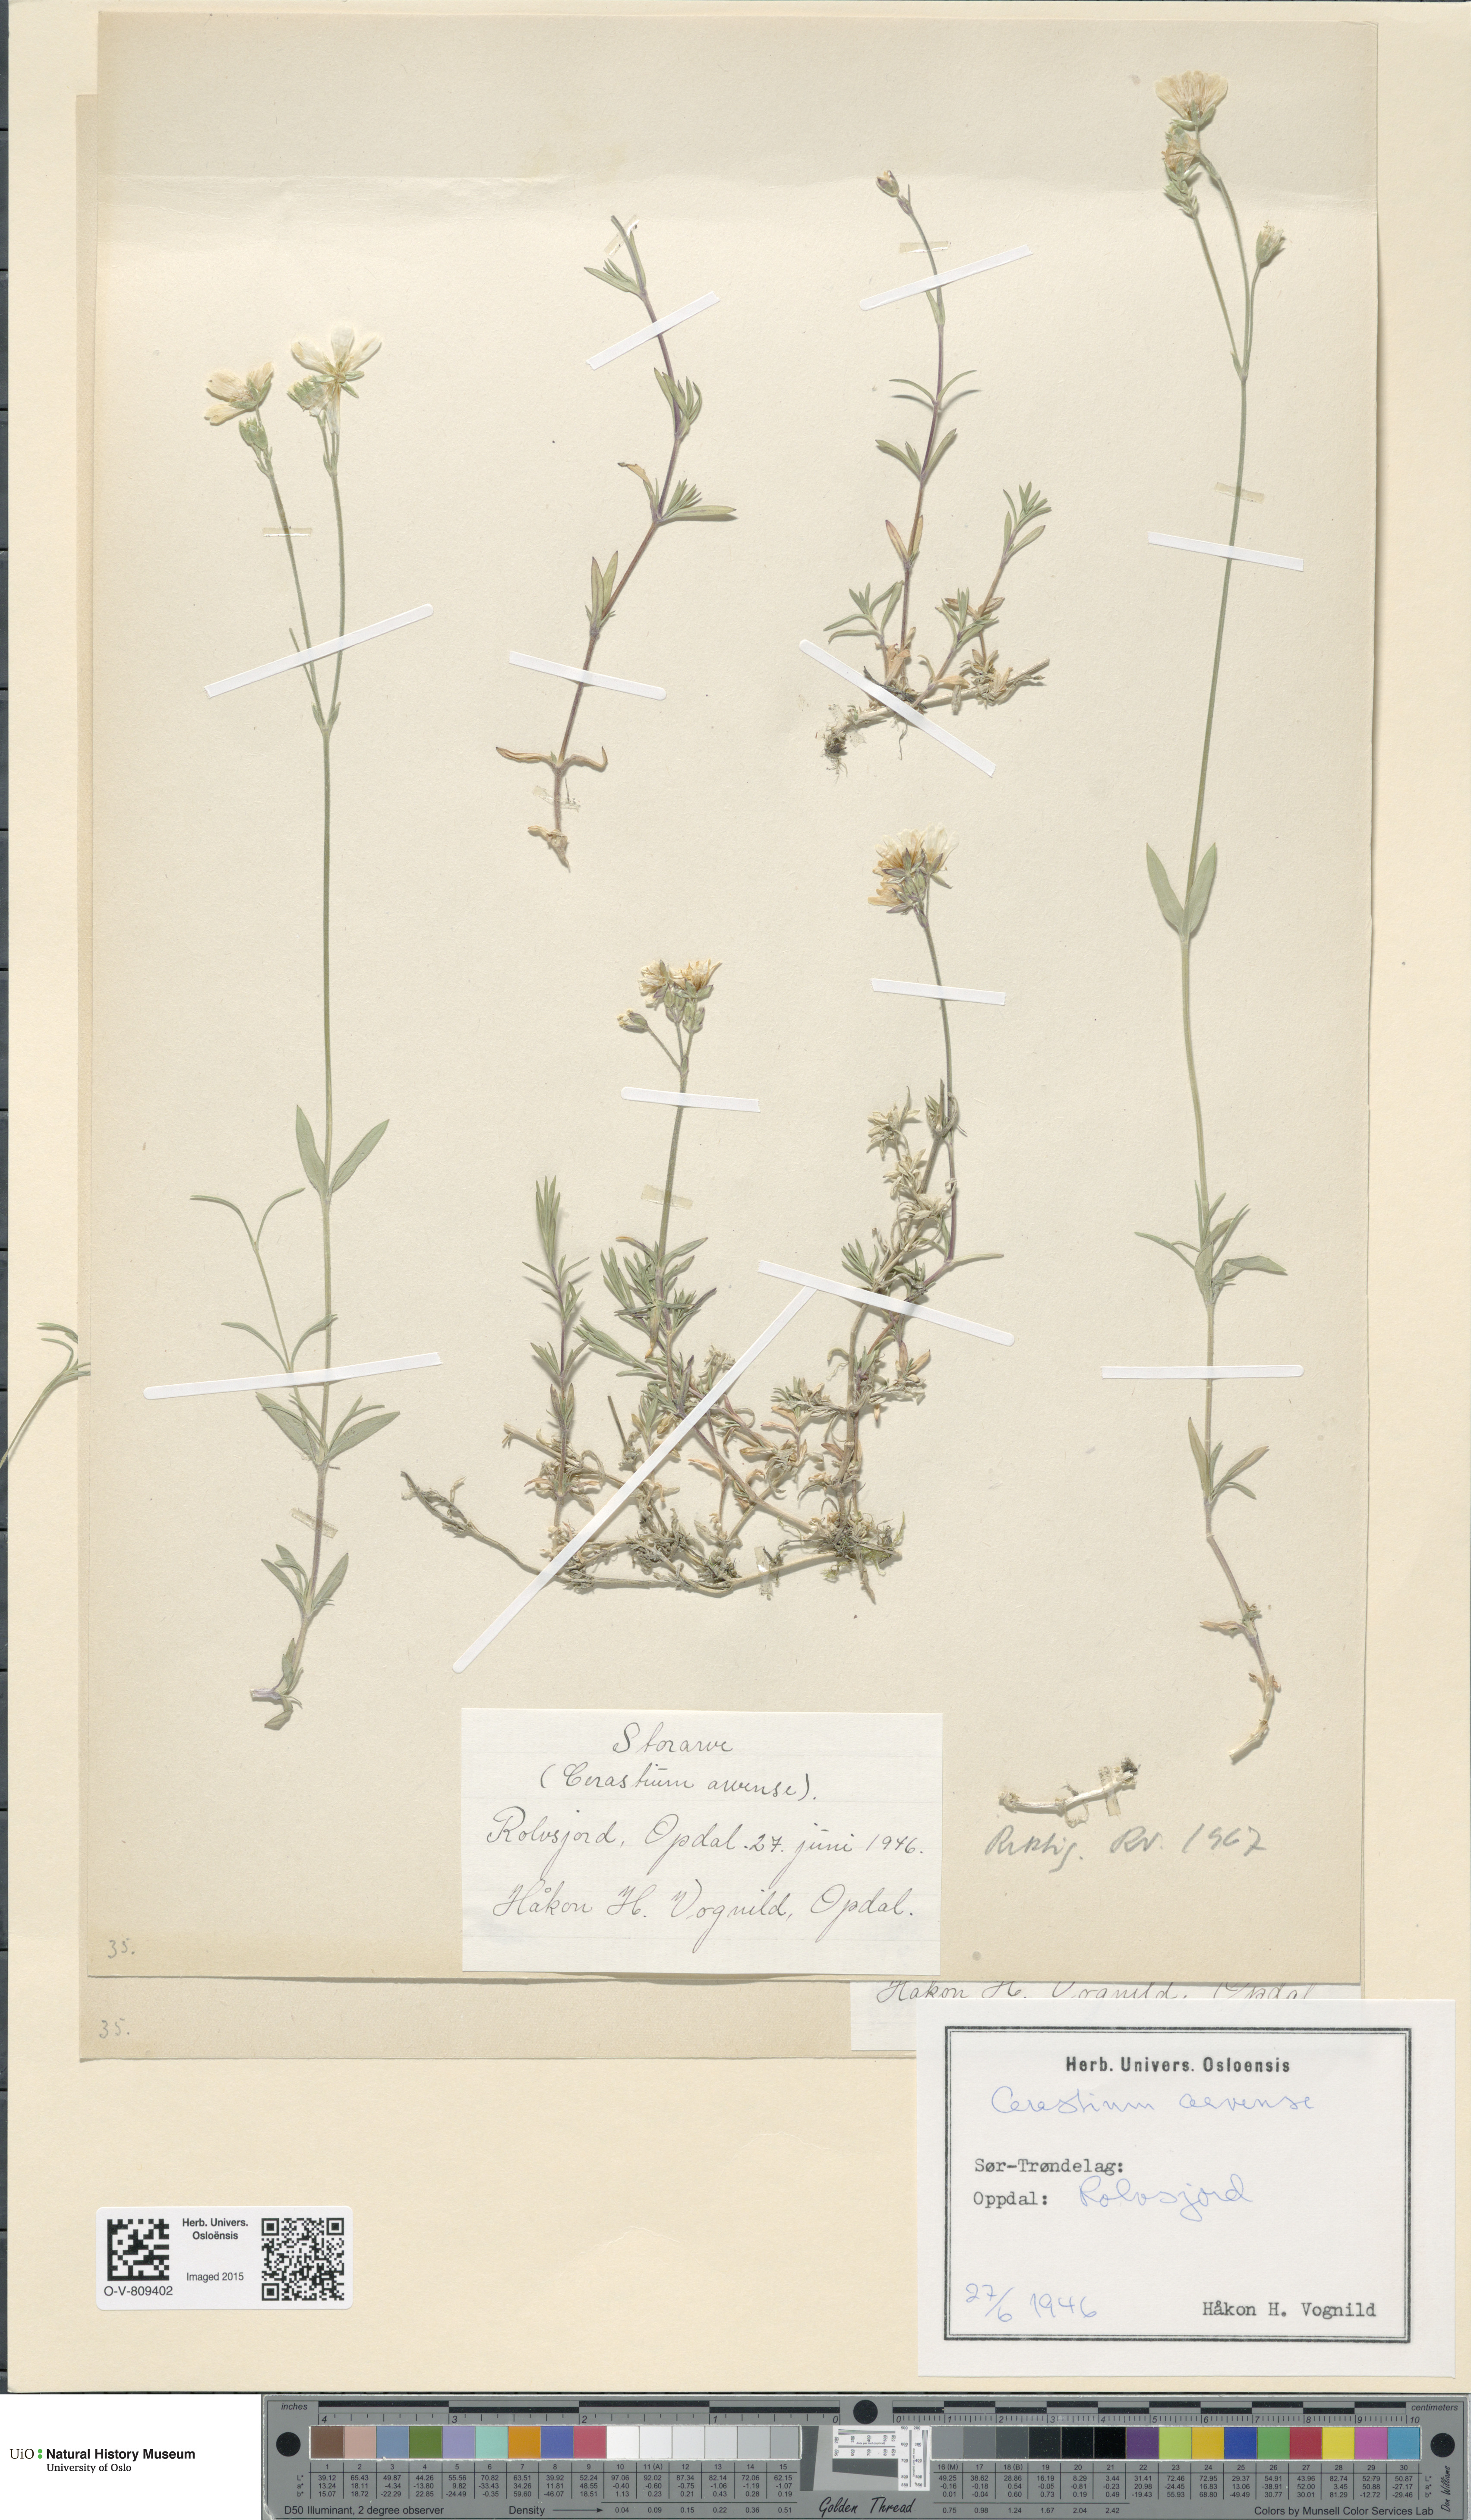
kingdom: Plantae
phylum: Tracheophyta
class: Magnoliopsida
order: Caryophyllales
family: Caryophyllaceae
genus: Cerastium
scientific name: Cerastium arvense
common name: Field mouse-ear
